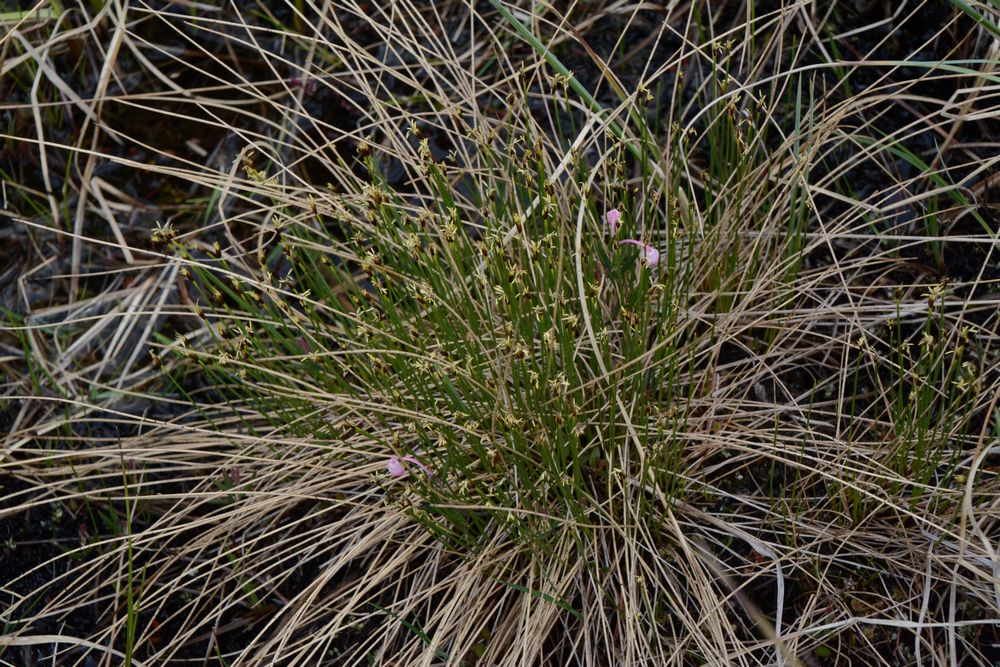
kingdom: Plantae
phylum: Tracheophyta
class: Liliopsida
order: Poales
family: Cyperaceae
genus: Trichophorum
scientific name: Trichophorum cespitosum
